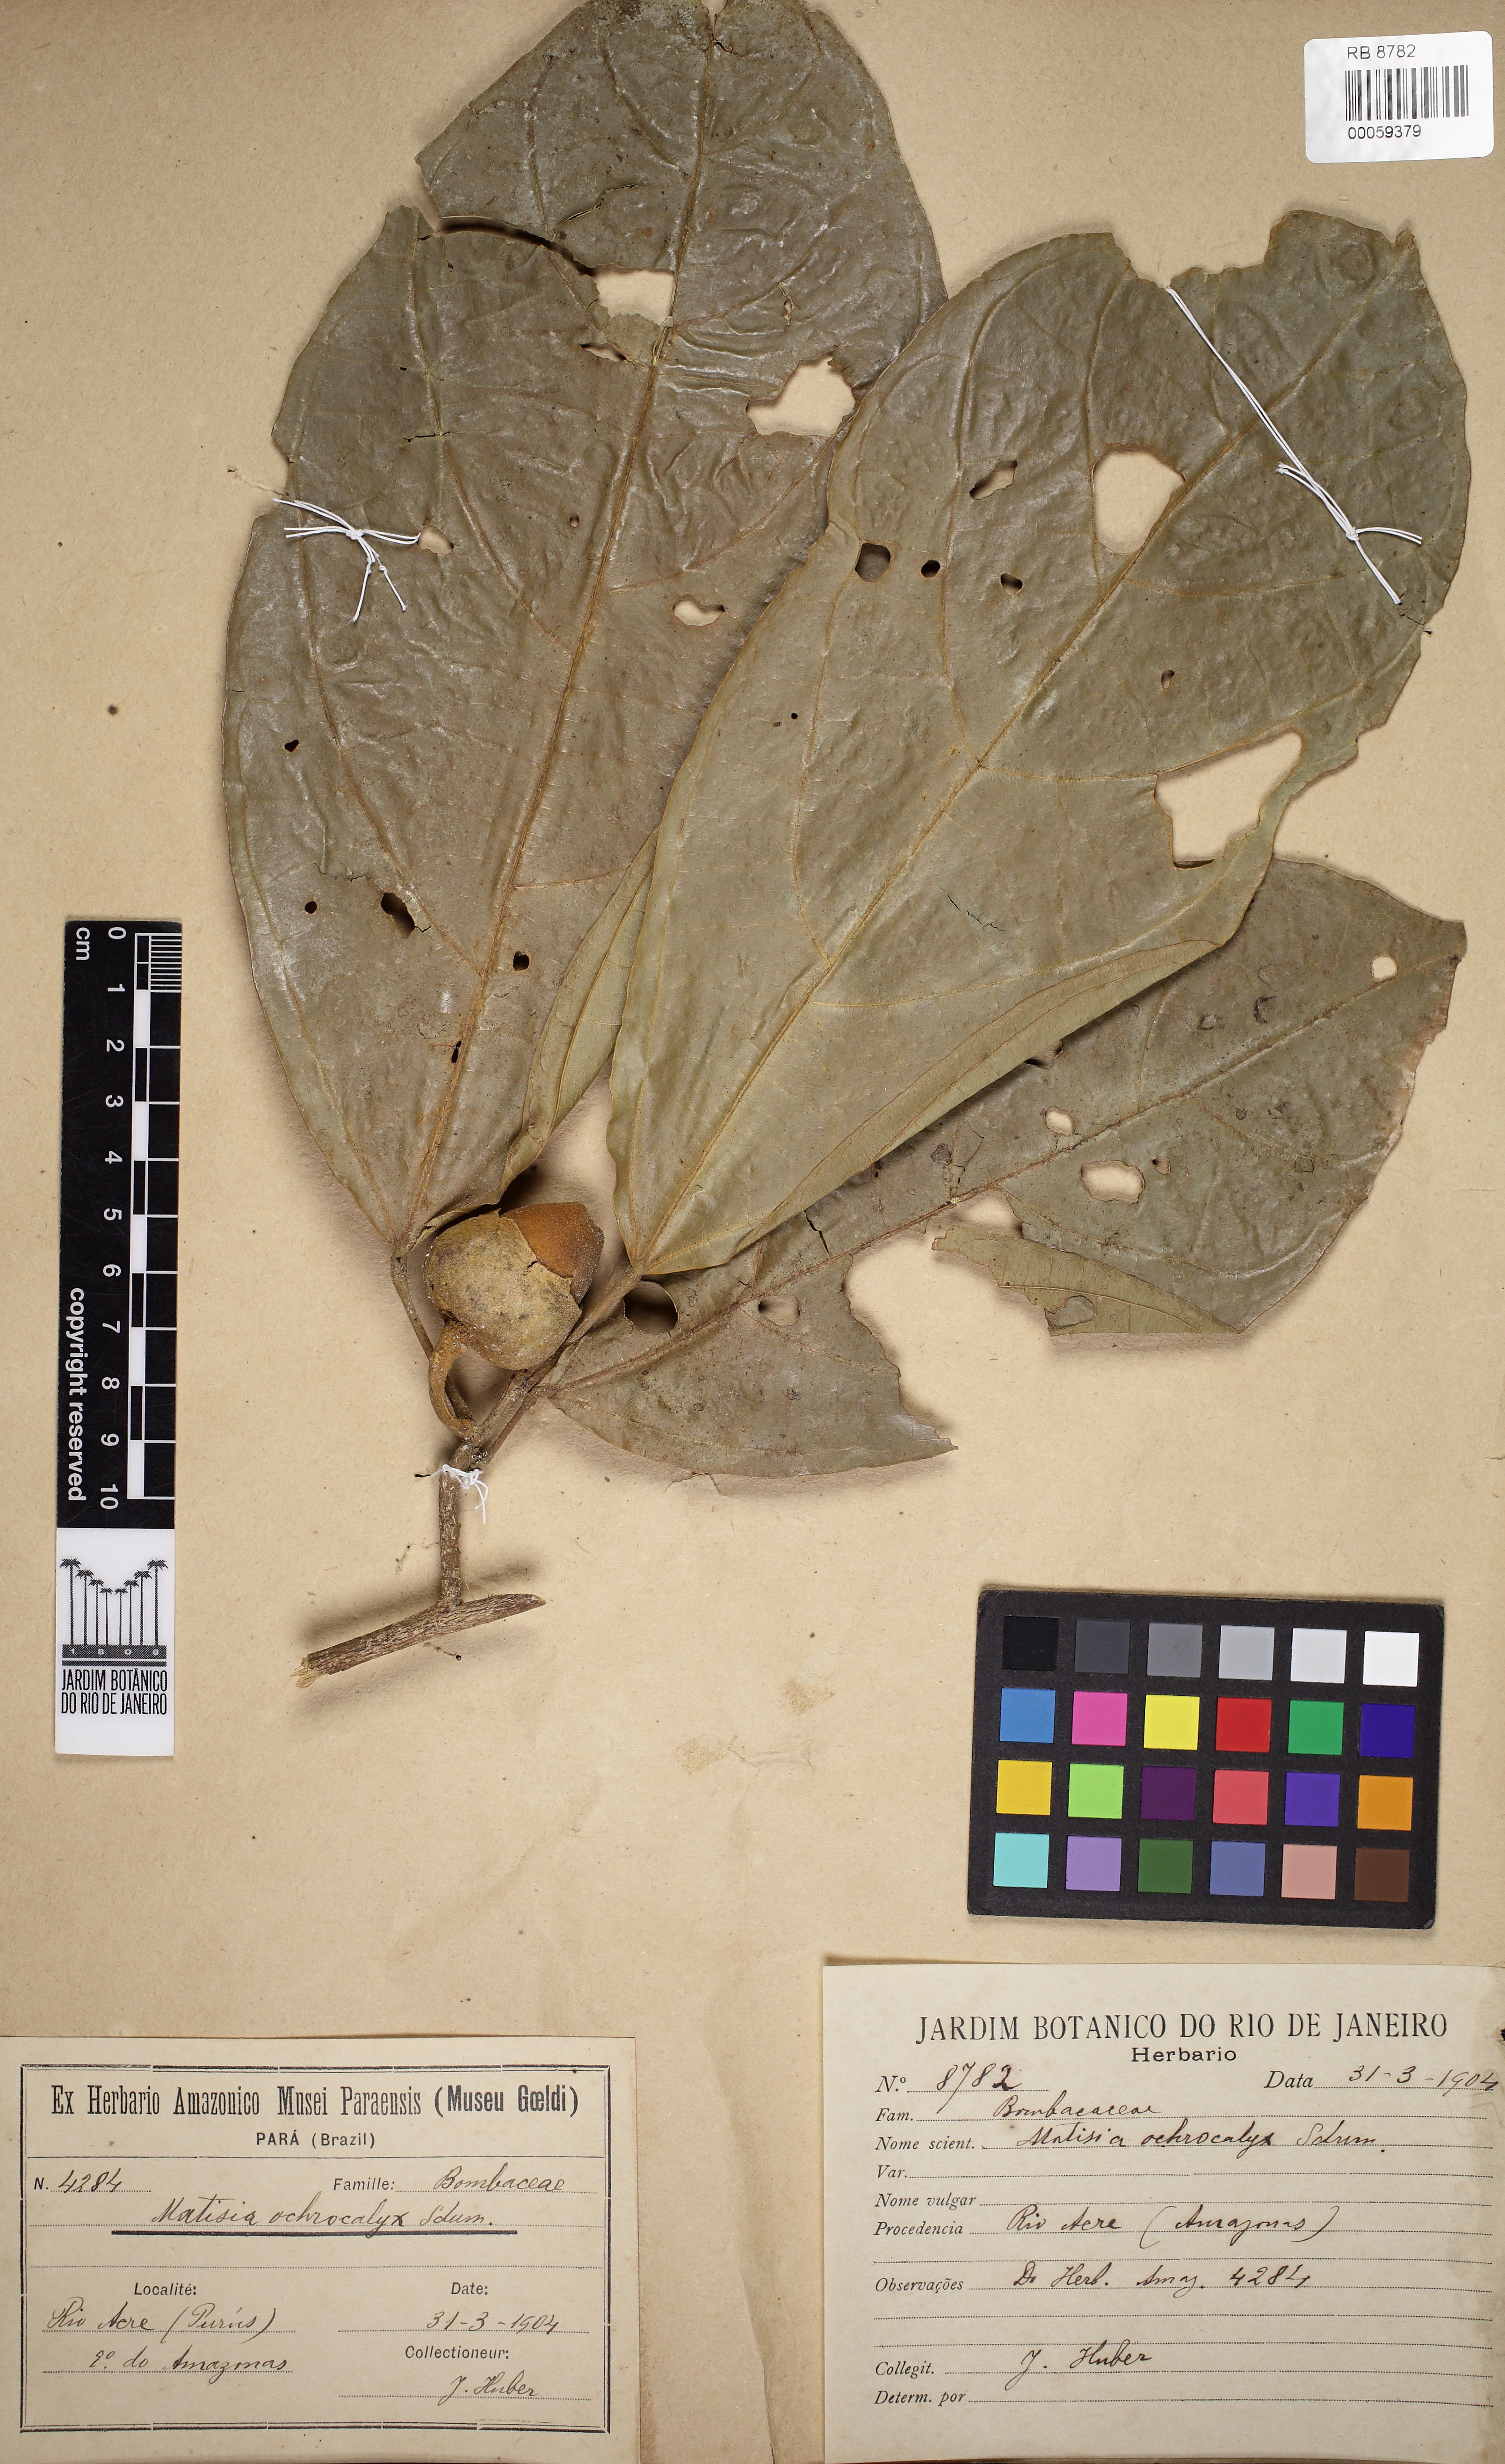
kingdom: Plantae
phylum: Tracheophyta
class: Magnoliopsida
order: Malvales
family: Malvaceae
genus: Matisia
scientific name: Matisia ochrocalyx
